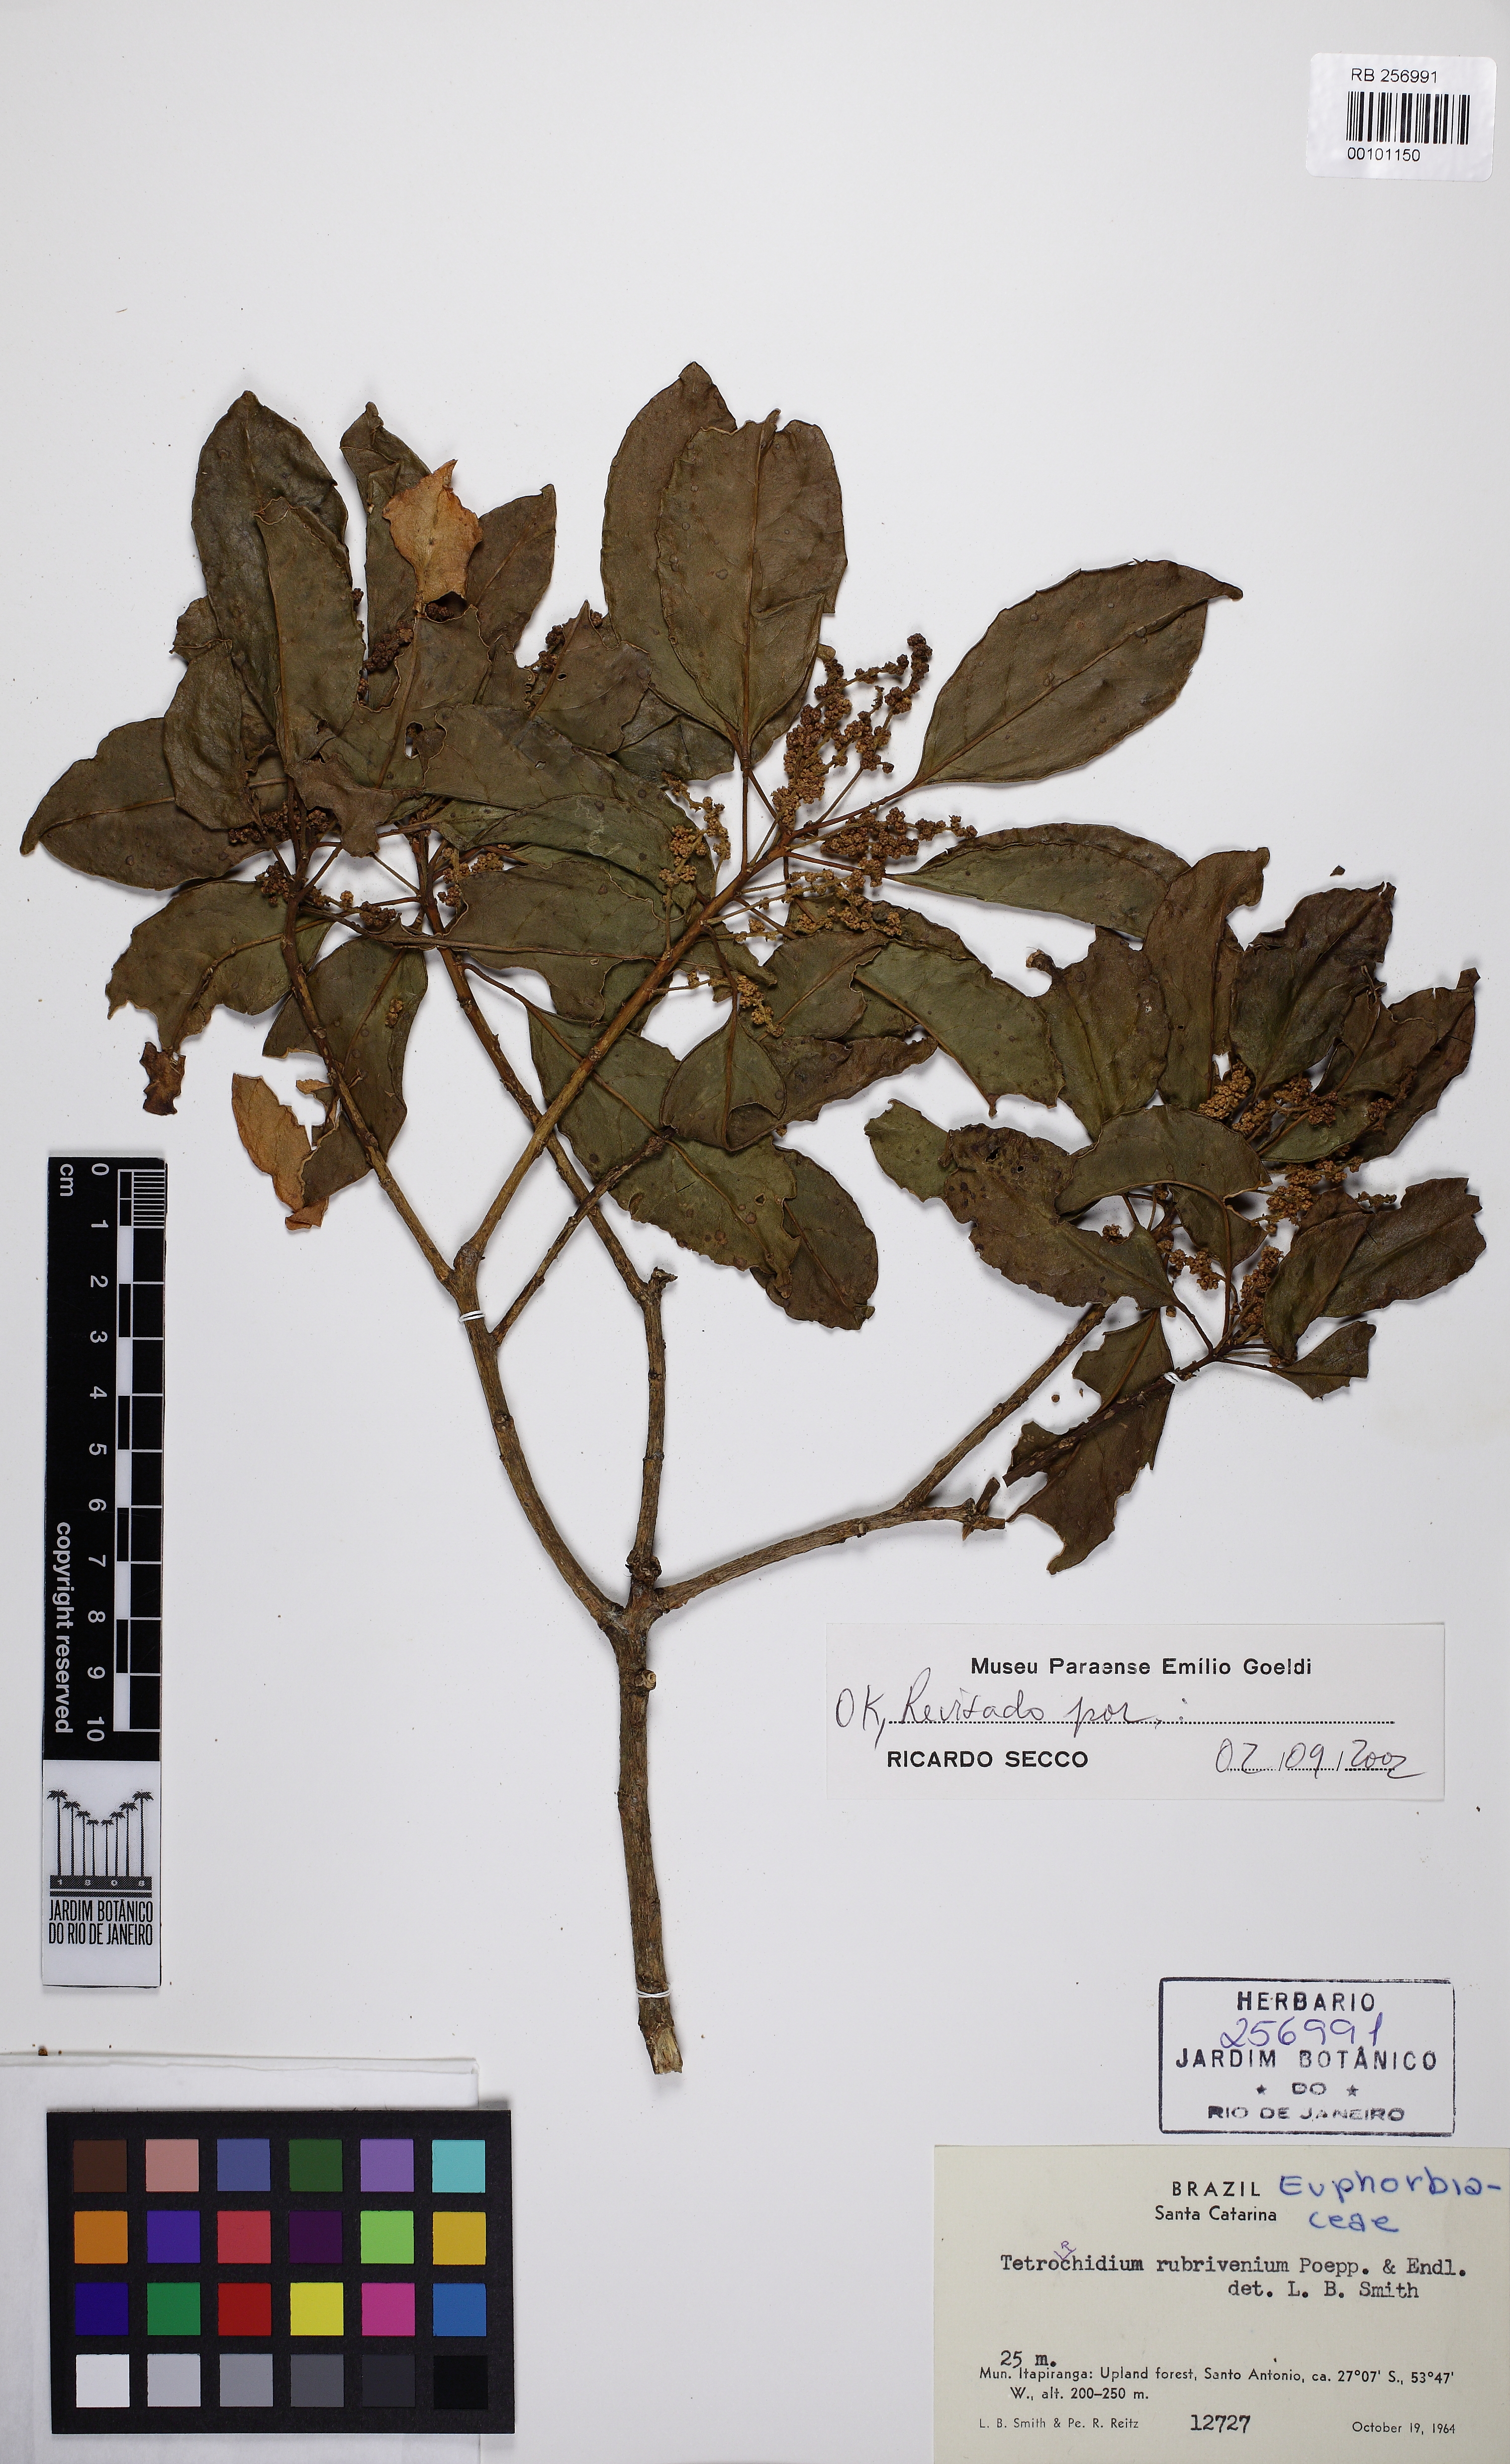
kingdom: Plantae
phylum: Tracheophyta
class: Magnoliopsida
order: Malpighiales
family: Euphorbiaceae
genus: Tetrorchidium
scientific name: Tetrorchidium rubrivenium
